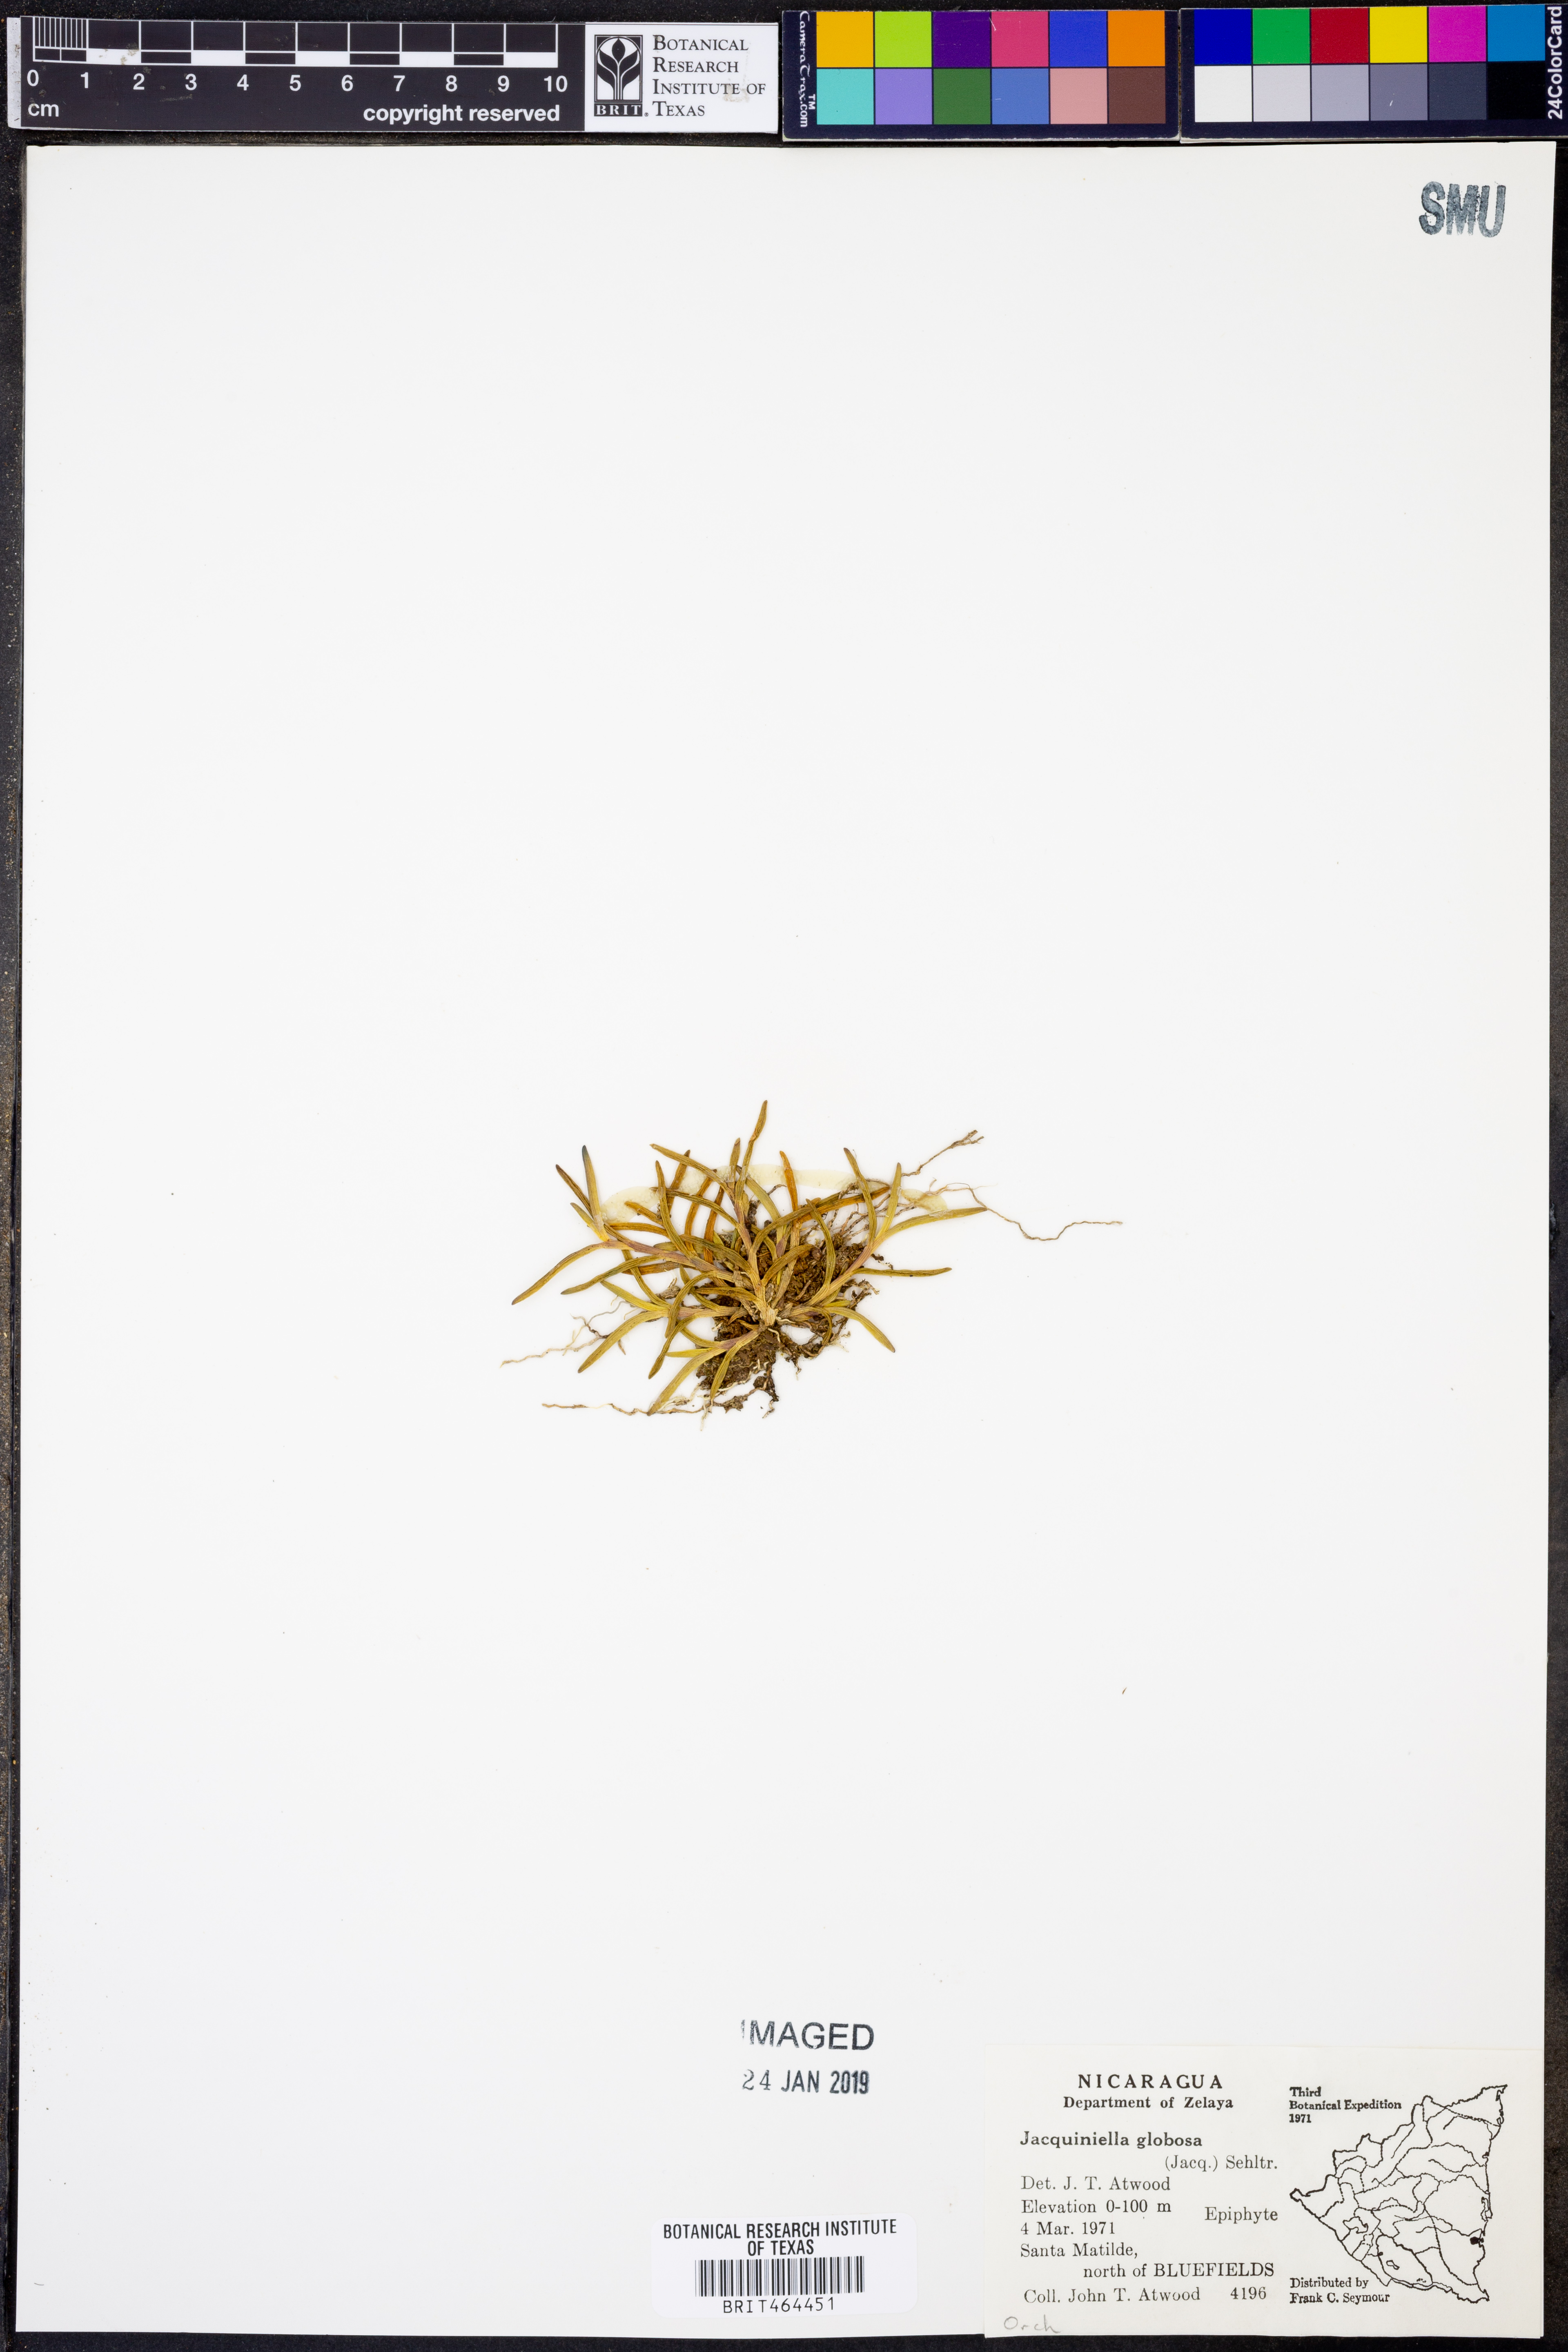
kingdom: Plantae
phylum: Tracheophyta
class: Liliopsida
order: Asparagales
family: Orchidaceae
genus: Jacquiniella
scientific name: Jacquiniella globosa
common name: Redblotch tufted orchid
